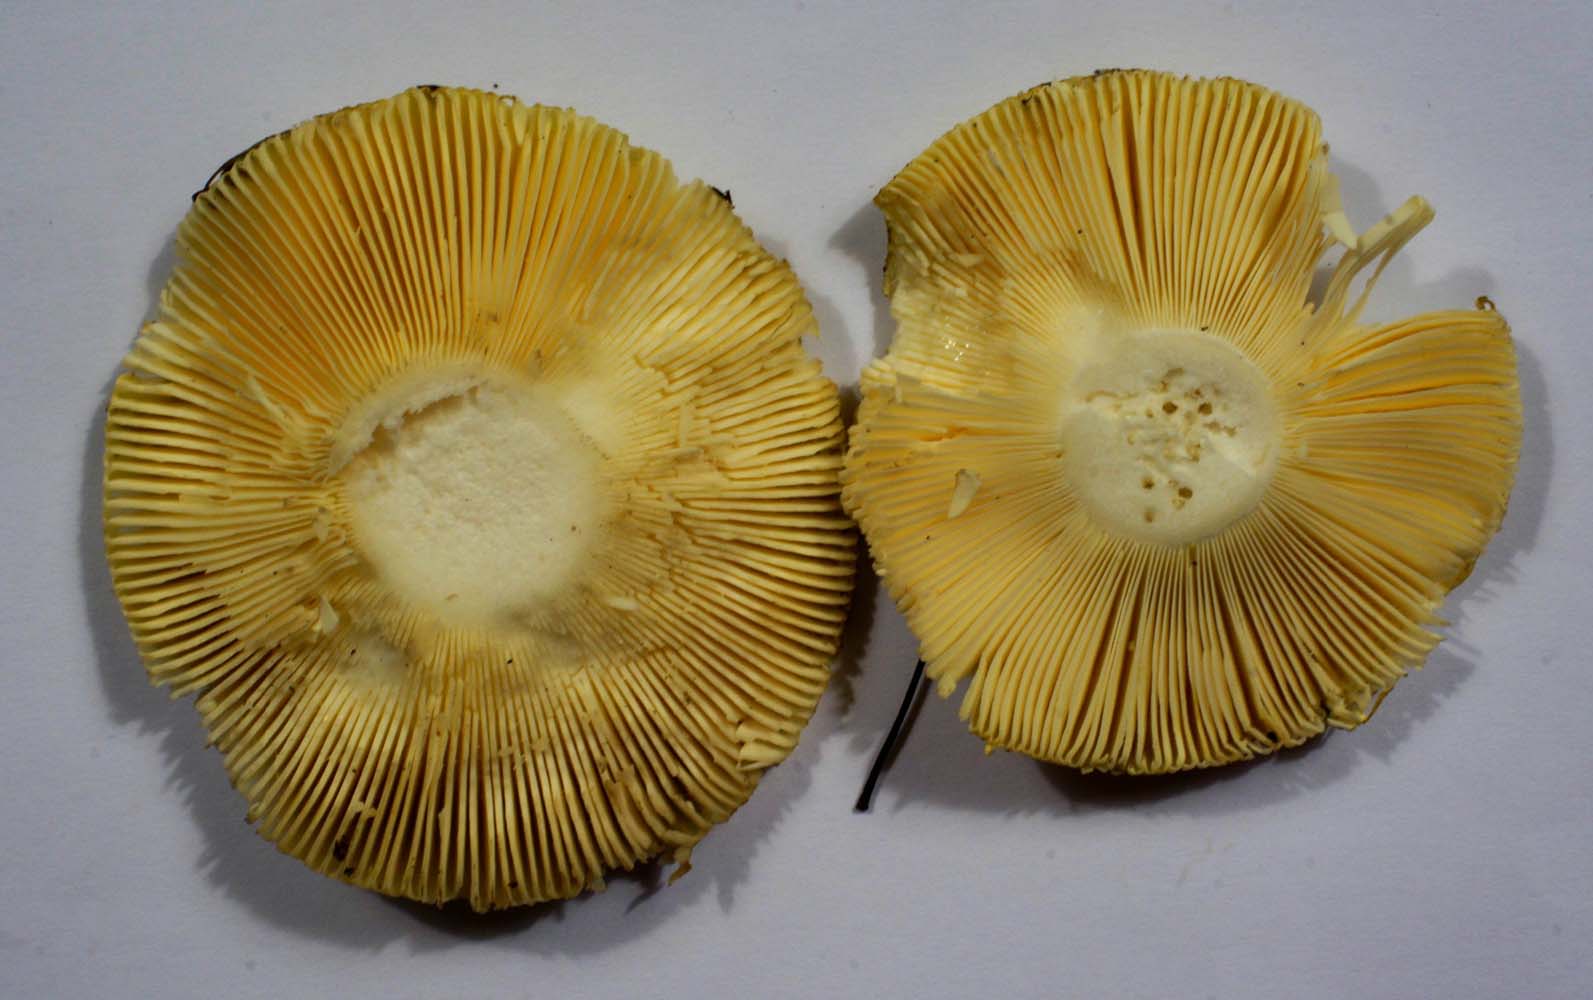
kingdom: Fungi
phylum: Basidiomycota
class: Agaricomycetes
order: Russulales
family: Russulaceae
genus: Russula
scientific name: Russula claroflava
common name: birke-skørhat
